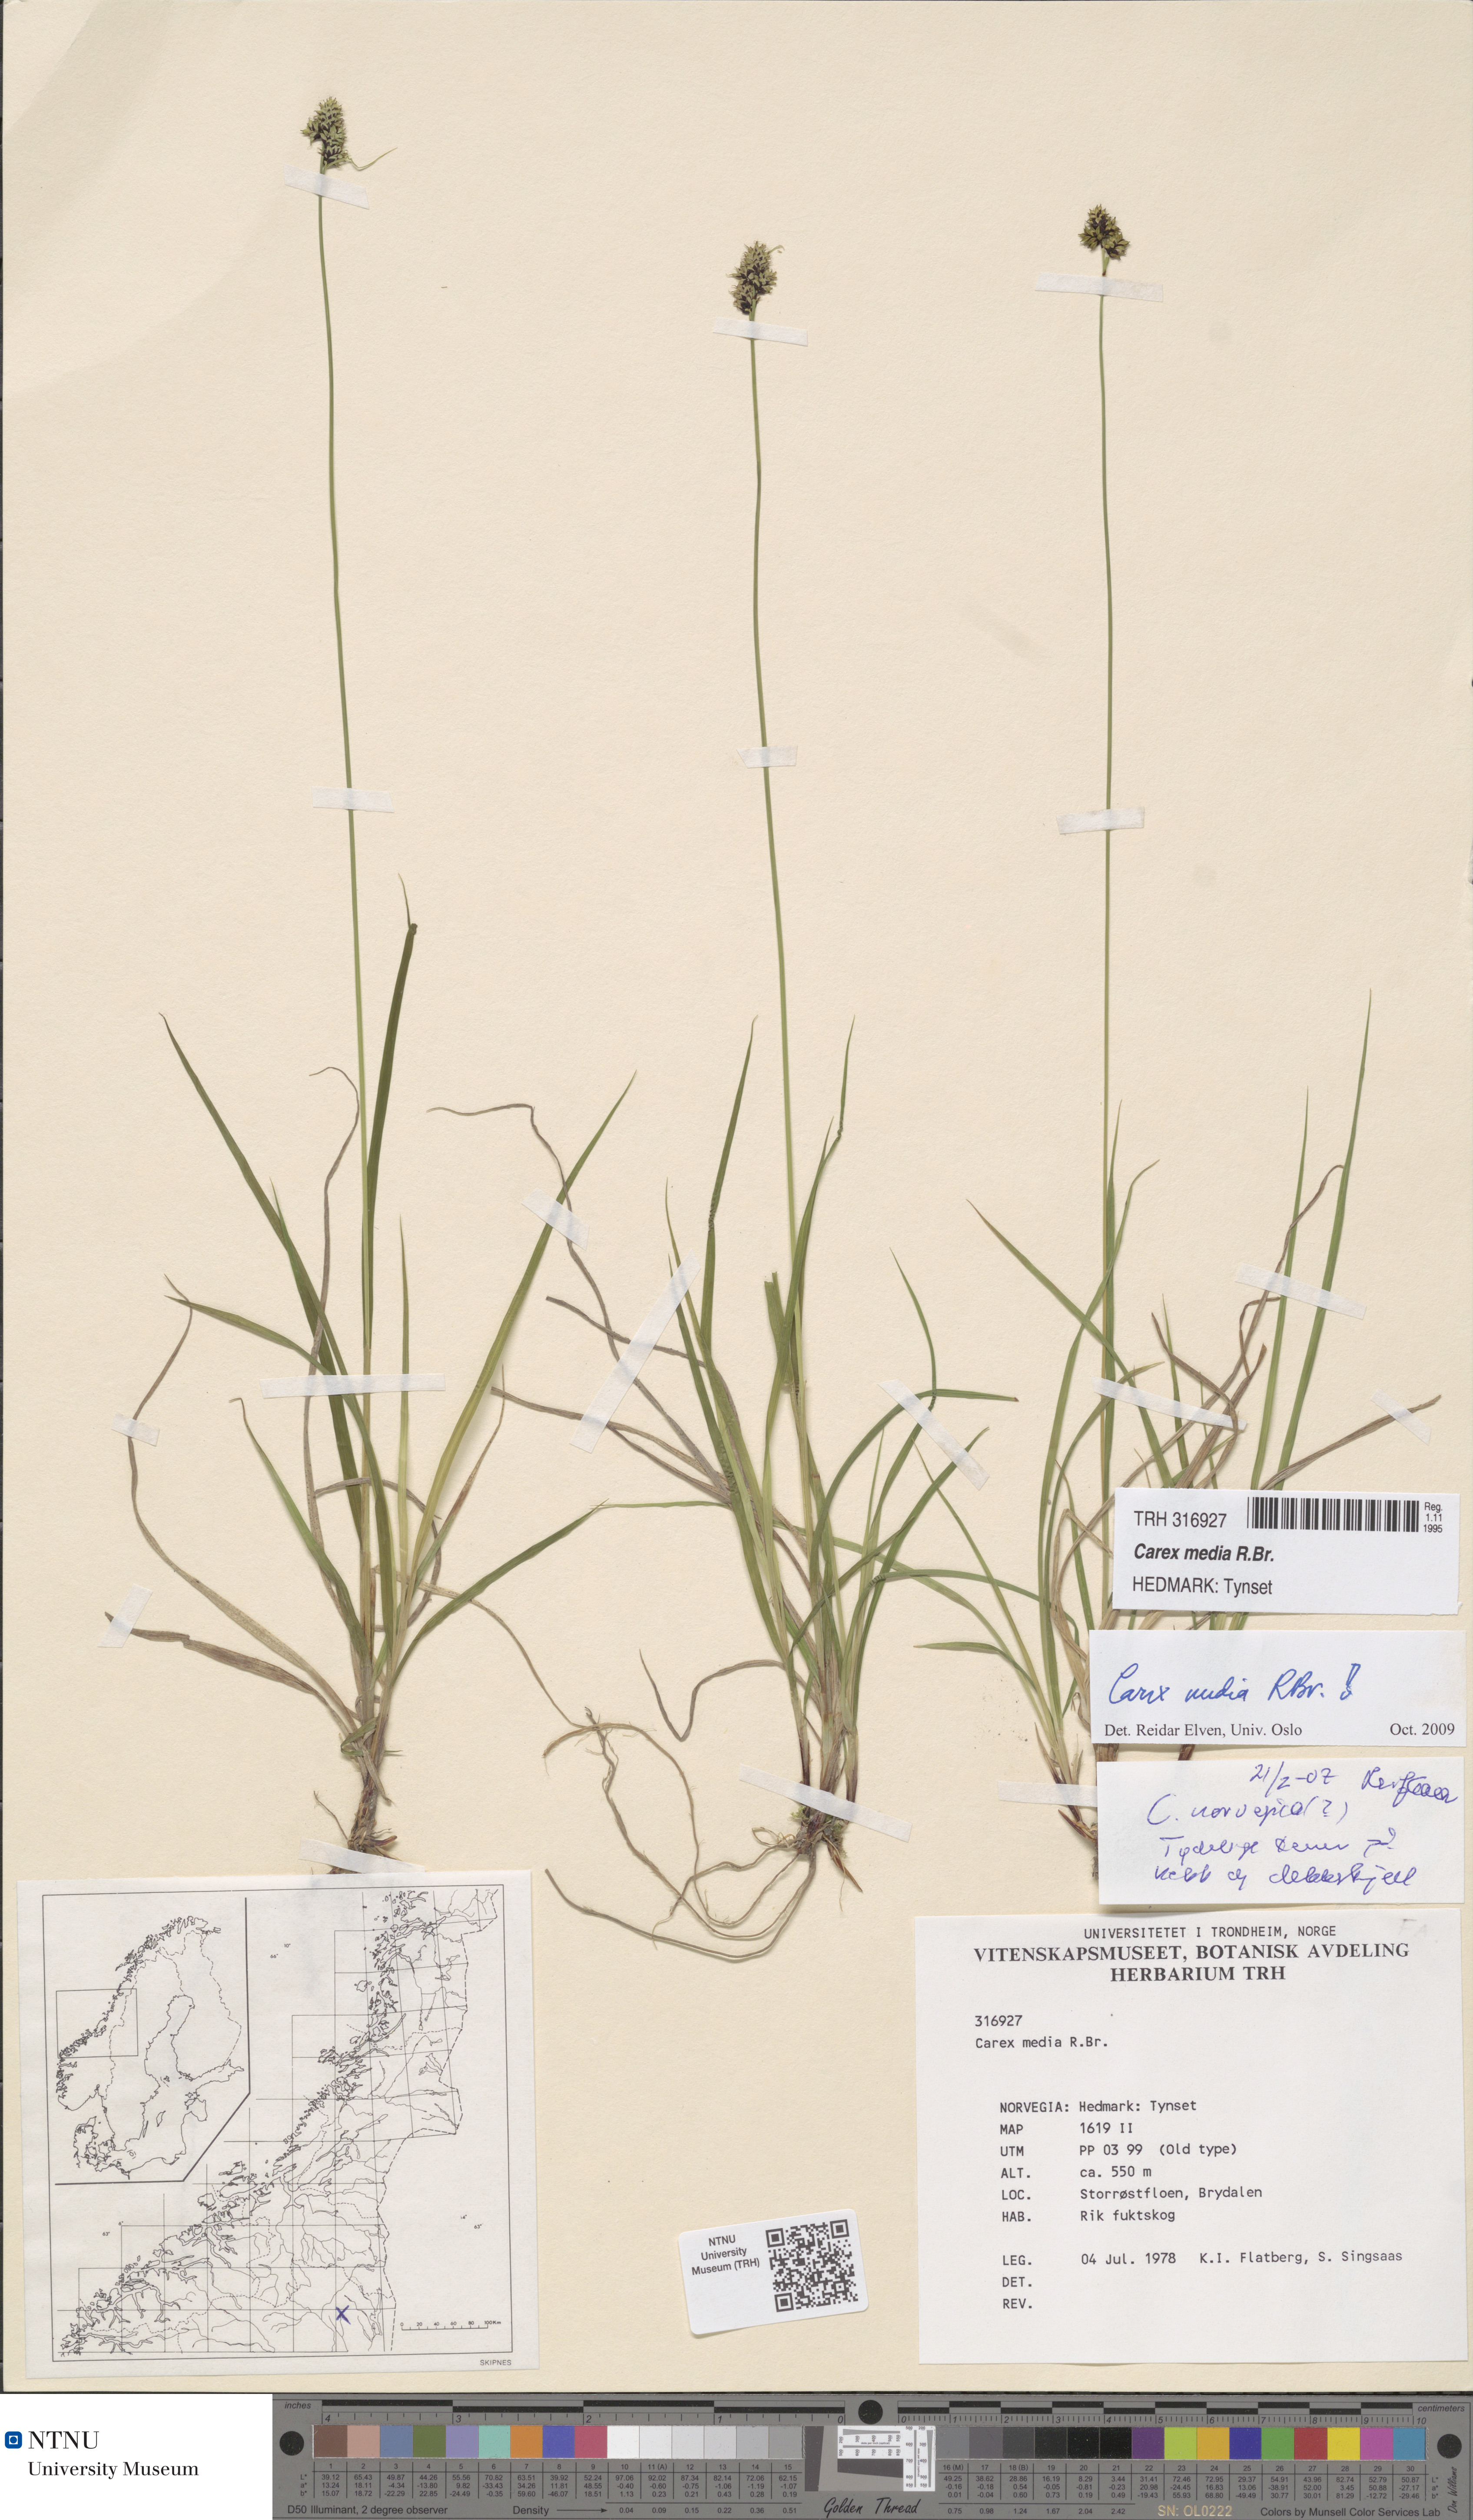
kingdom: Plantae
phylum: Tracheophyta
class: Liliopsida
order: Poales
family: Cyperaceae
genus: Carex
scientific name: Carex media
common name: Alpine sedge
